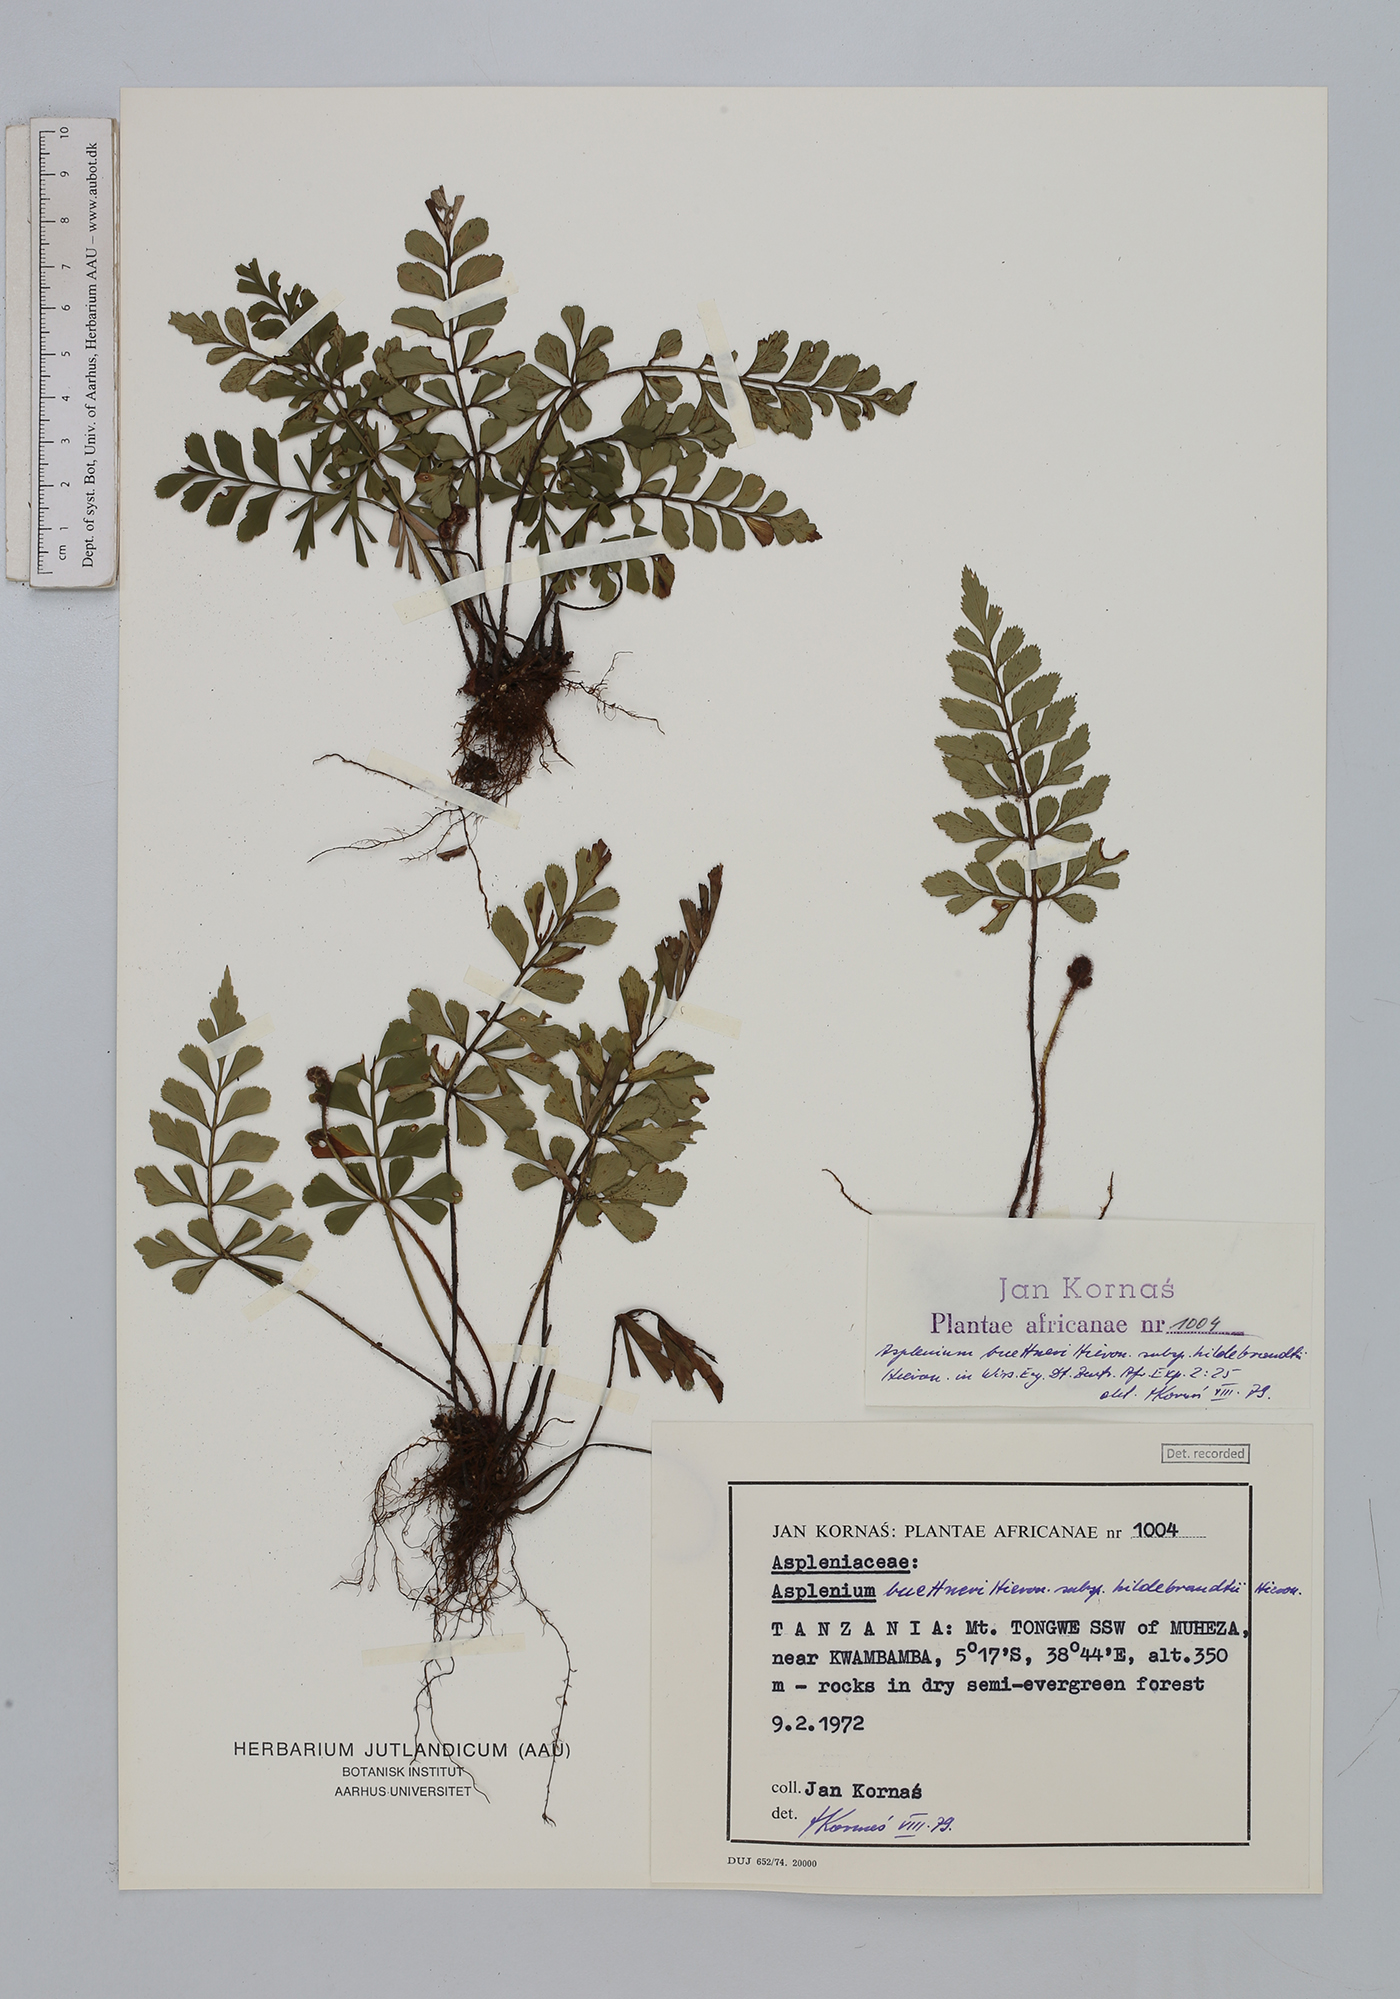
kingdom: Plantae
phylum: Tracheophyta
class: Polypodiopsida
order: Polypodiales
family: Aspleniaceae
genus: Asplenium
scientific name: Asplenium buettneri
